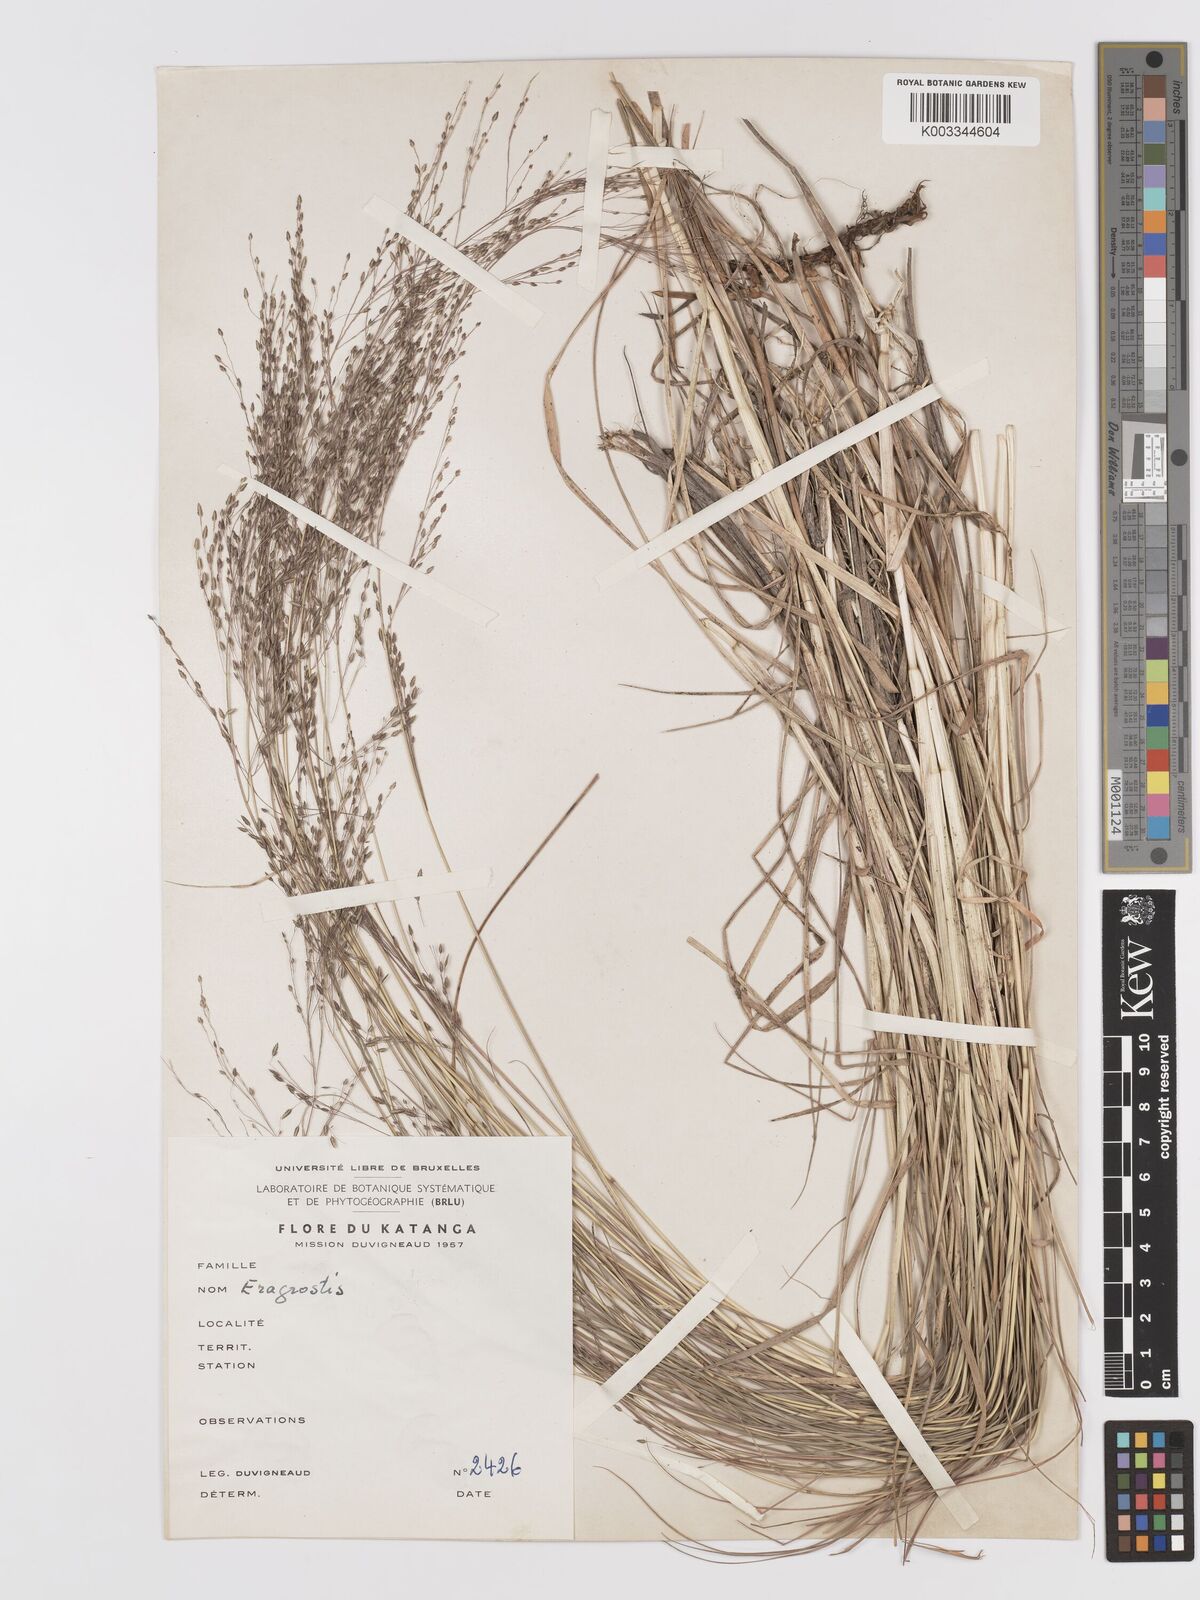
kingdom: Plantae
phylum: Tracheophyta
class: Liliopsida
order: Poales
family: Poaceae
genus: Eragrostis
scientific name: Eragrostis gangetica
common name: Slimflower lovegrass
